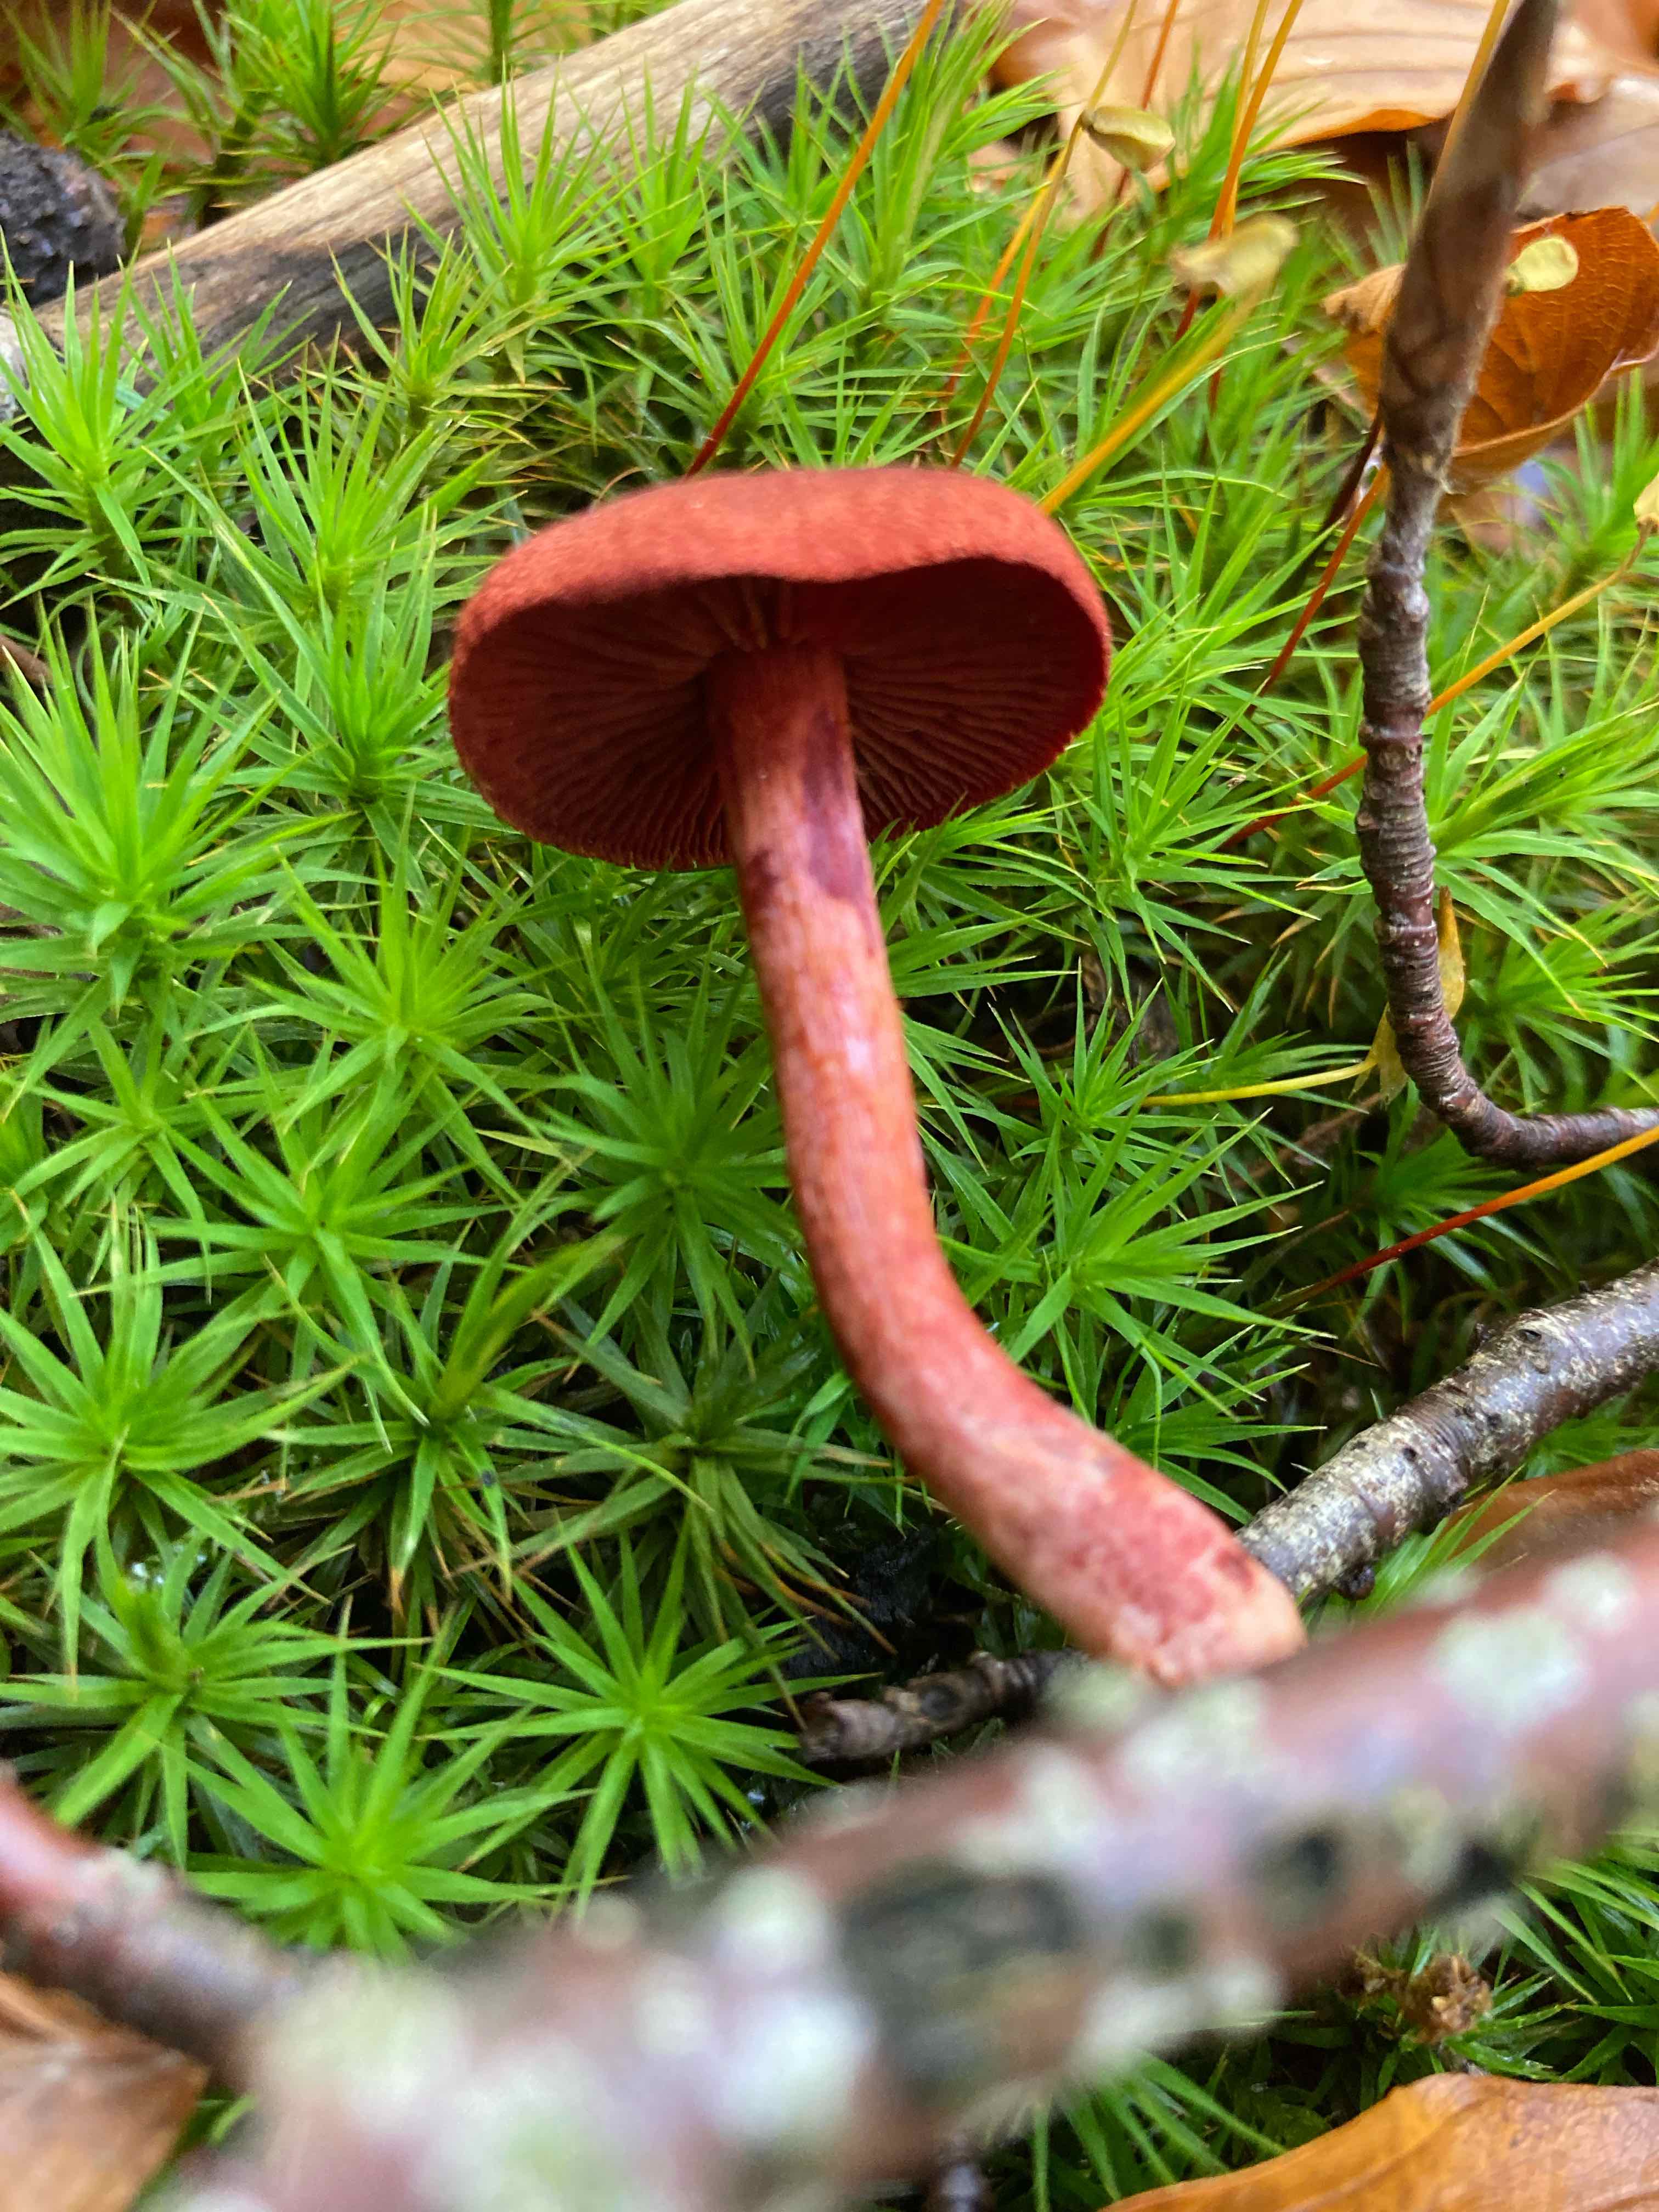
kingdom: Fungi
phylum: Basidiomycota
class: Agaricomycetes
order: Agaricales
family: Cortinariaceae
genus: Cortinarius
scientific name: Cortinarius sanguineus
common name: Bloodred webcap
